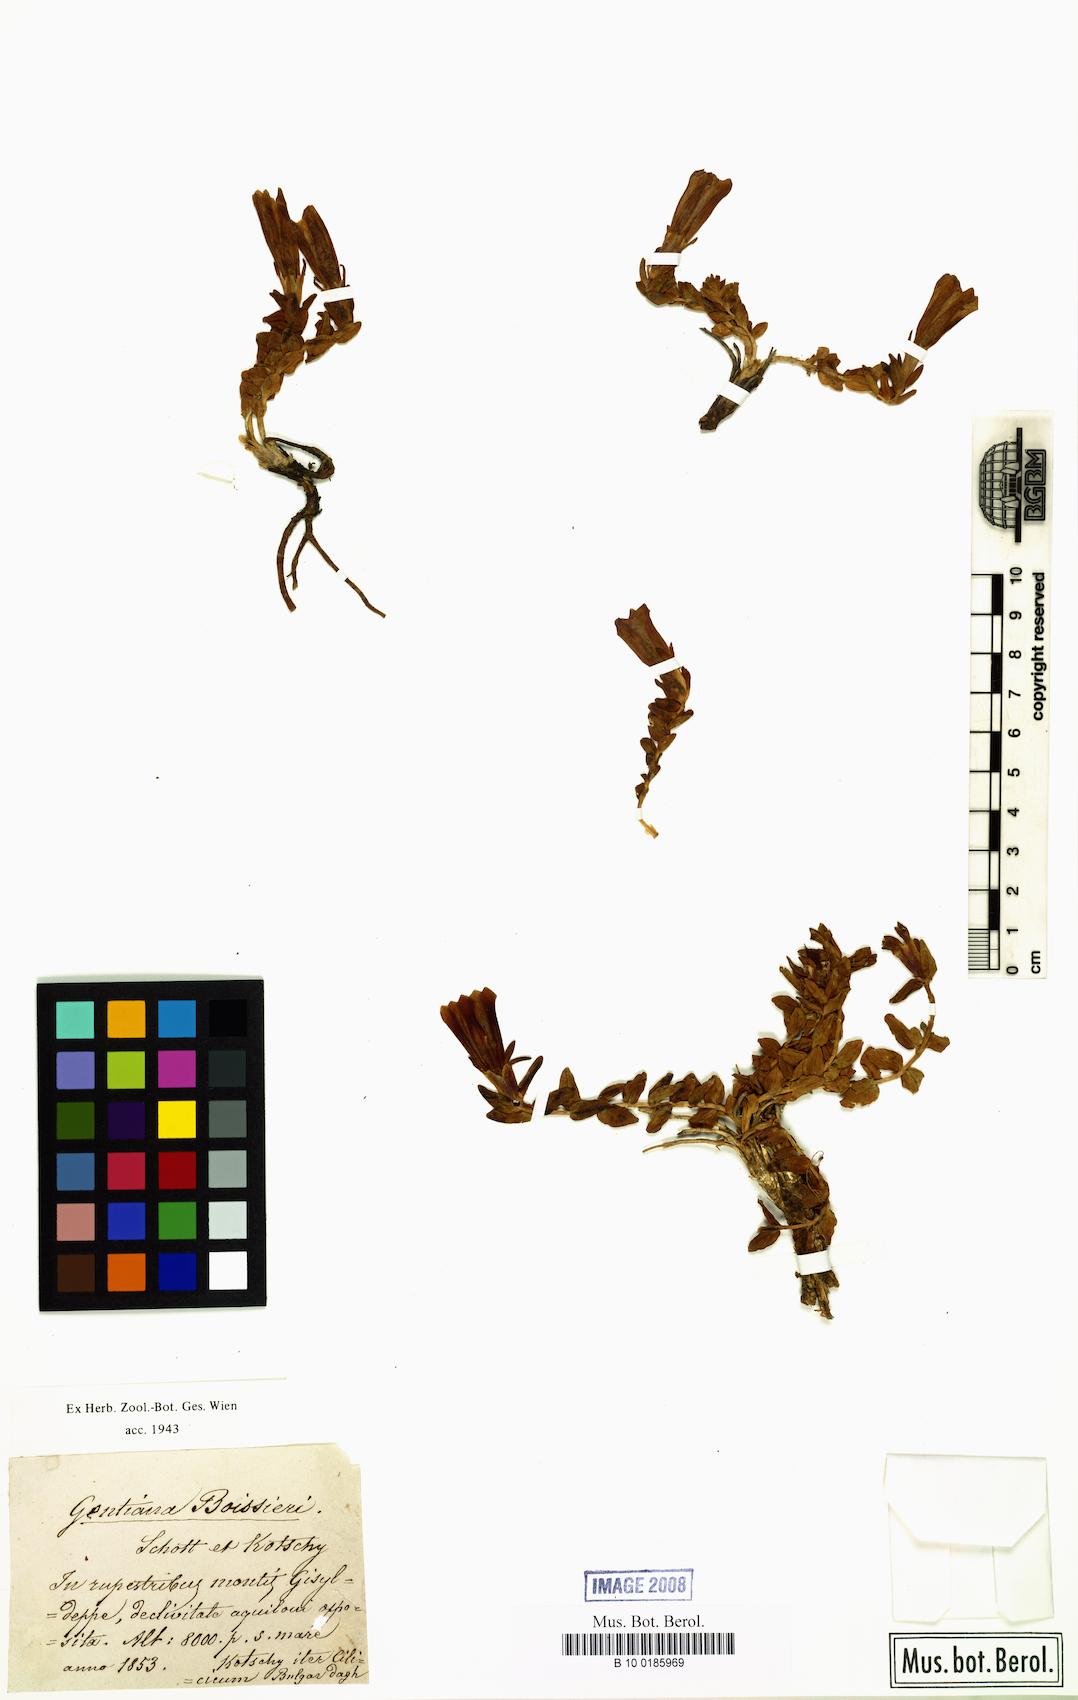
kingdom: Plantae
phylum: Tracheophyta
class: Magnoliopsida
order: Gentianales
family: Gentianaceae
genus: Gentiana
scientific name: Gentiana boissieri
